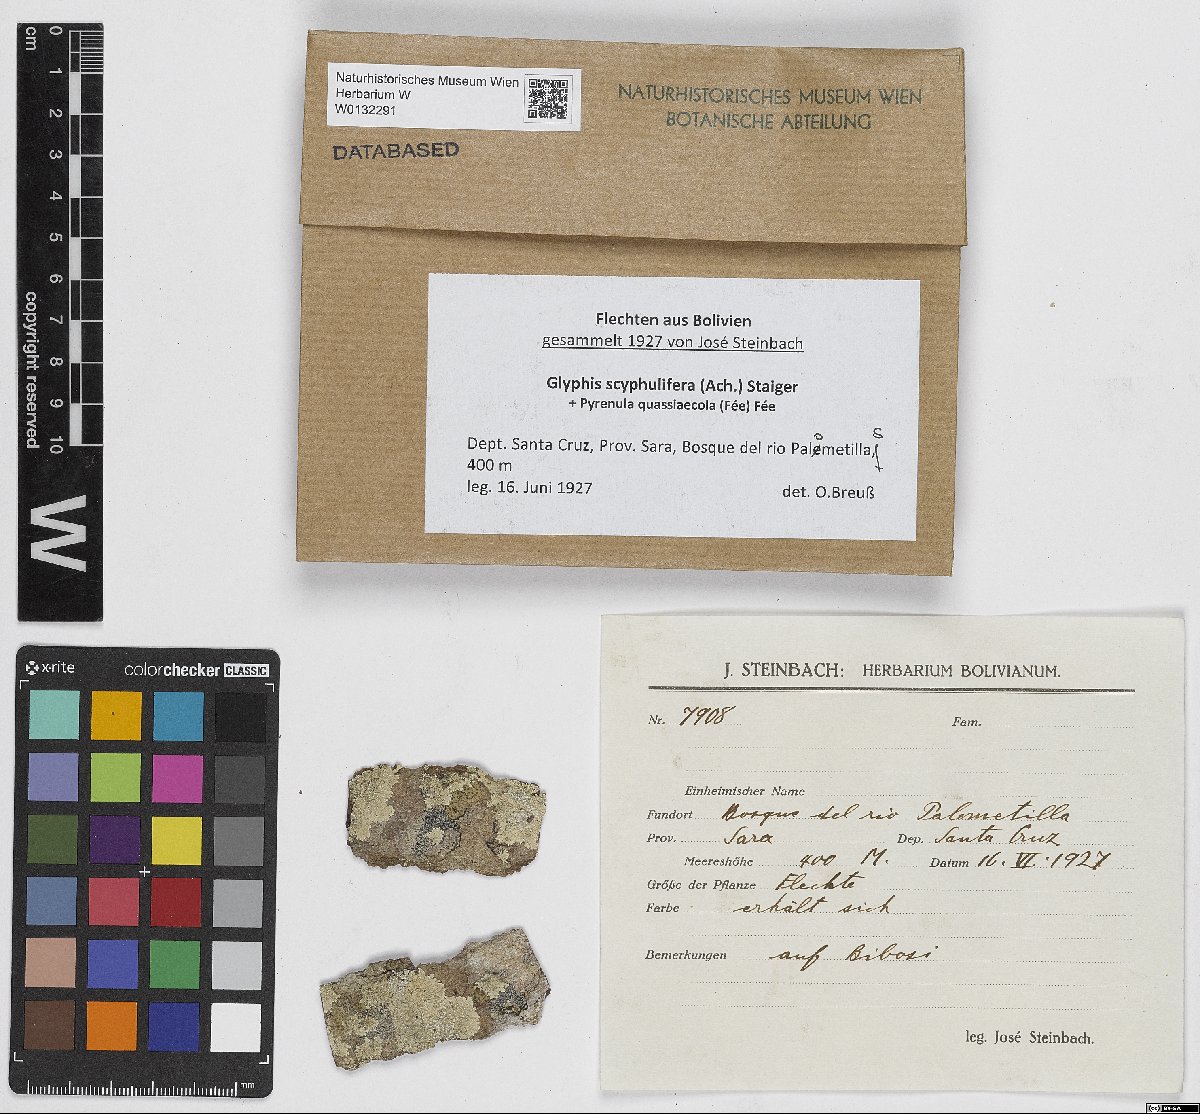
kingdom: Fungi
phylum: Ascomycota
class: Lecanoromycetes
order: Ostropales
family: Graphidaceae
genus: Glyphis
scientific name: Glyphis scyphulifera
